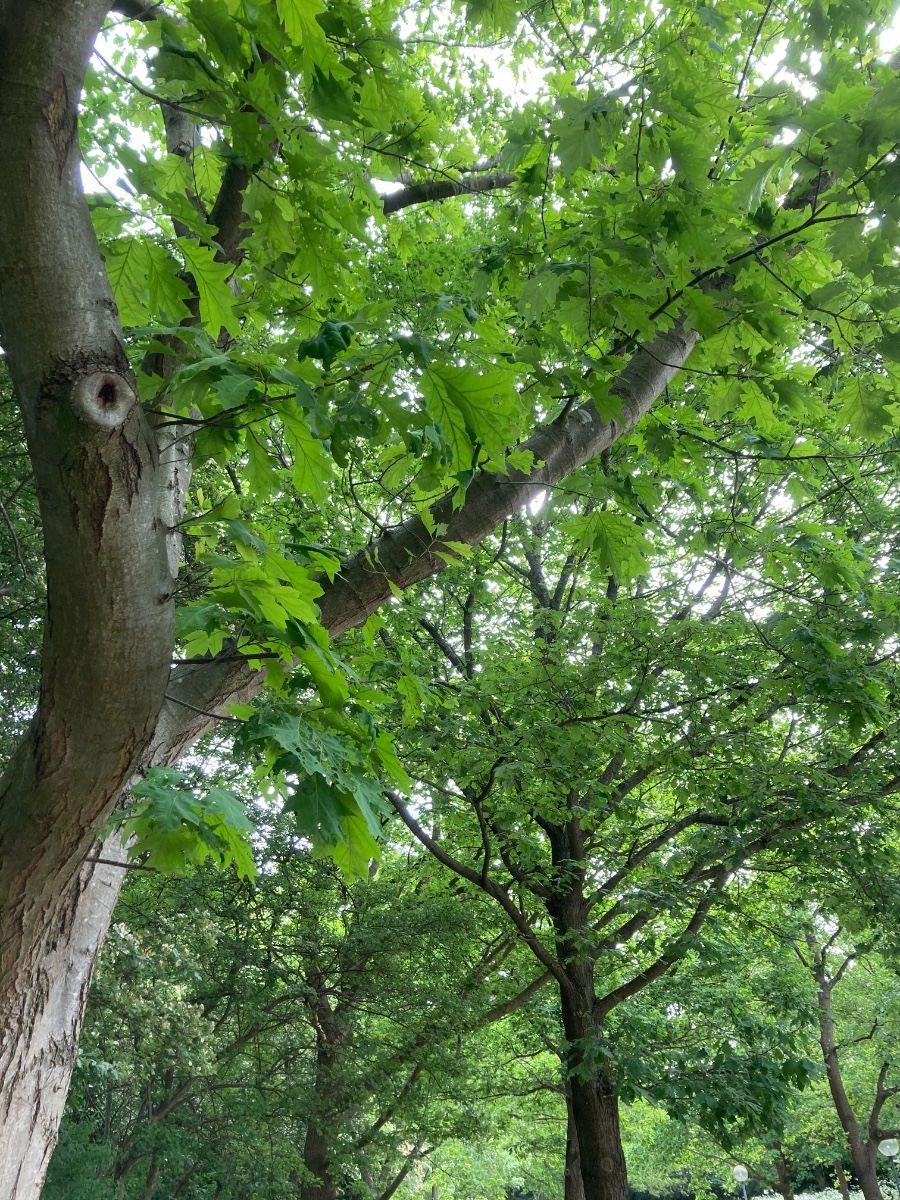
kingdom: Fungi
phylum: Ascomycota
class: Taphrinomycetes
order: Taphrinales
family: Taphrinaceae
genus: Taphrina
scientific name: Taphrina caerulescens
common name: Oak leaf blister
